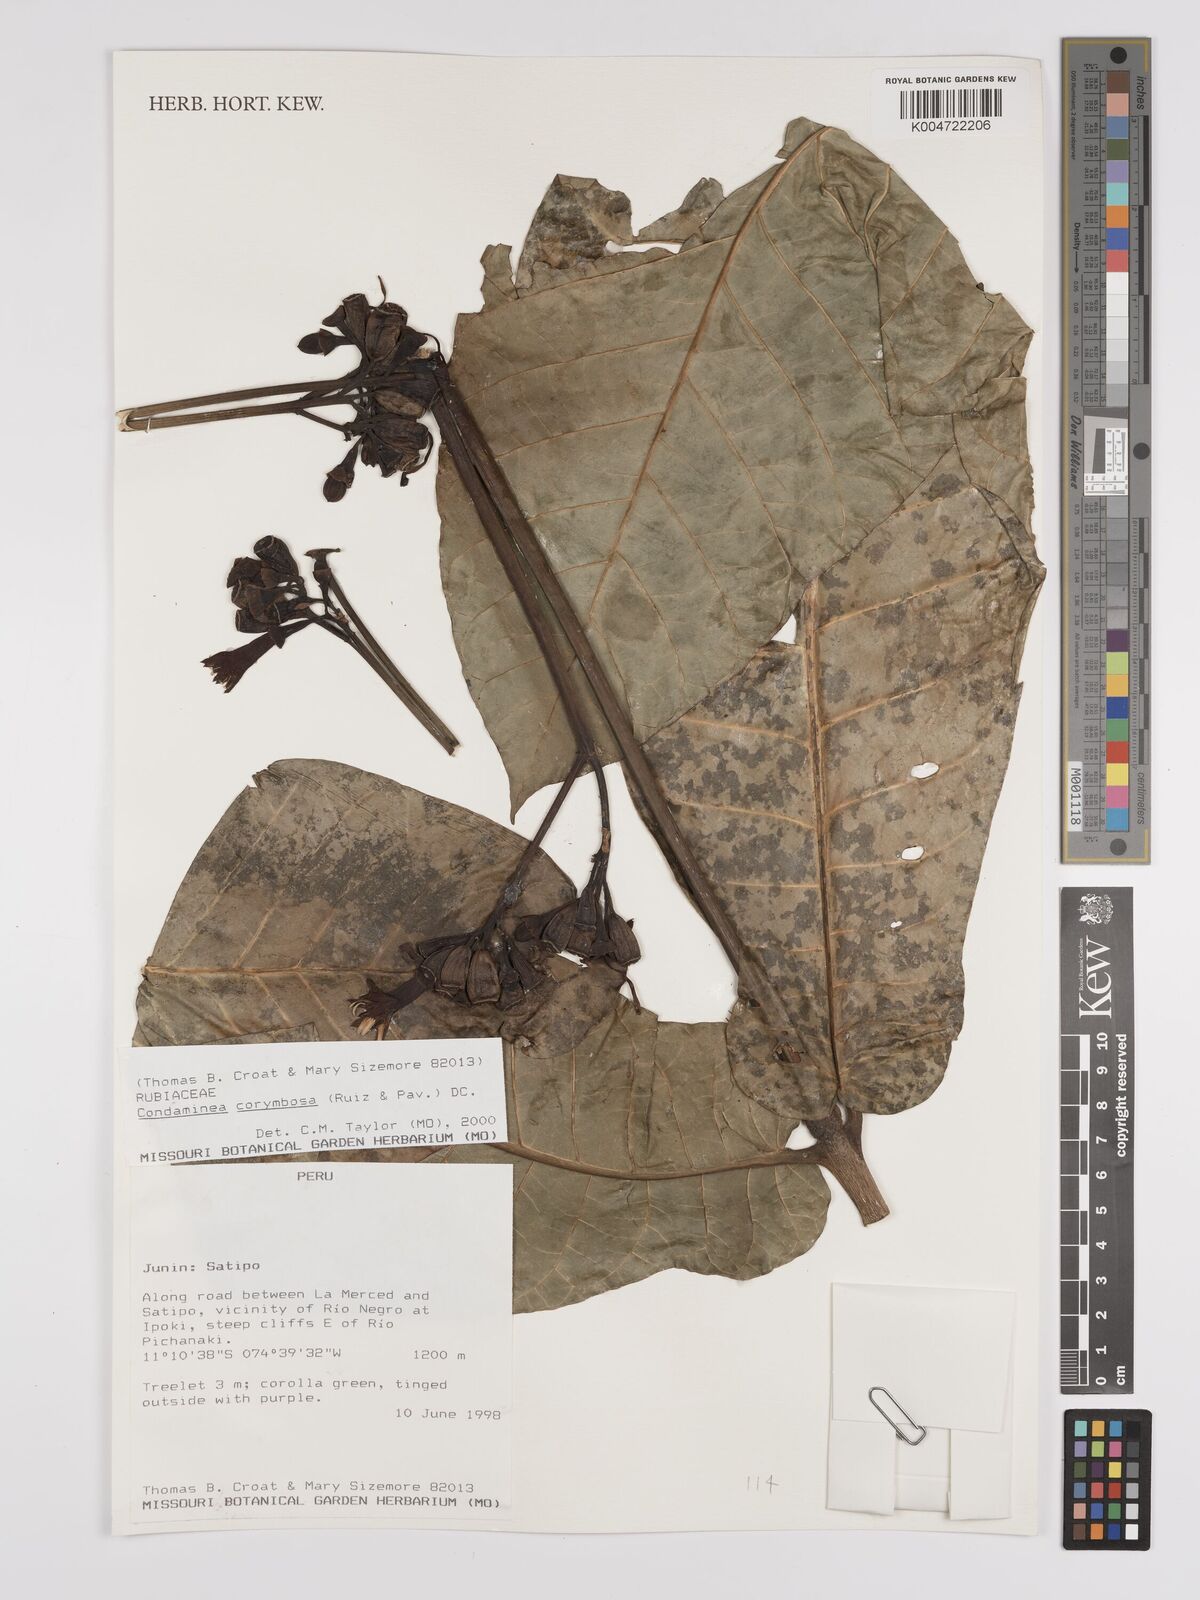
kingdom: Plantae
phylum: Tracheophyta
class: Magnoliopsida
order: Gentianales
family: Rubiaceae
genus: Condaminea
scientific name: Condaminea corymbosa
